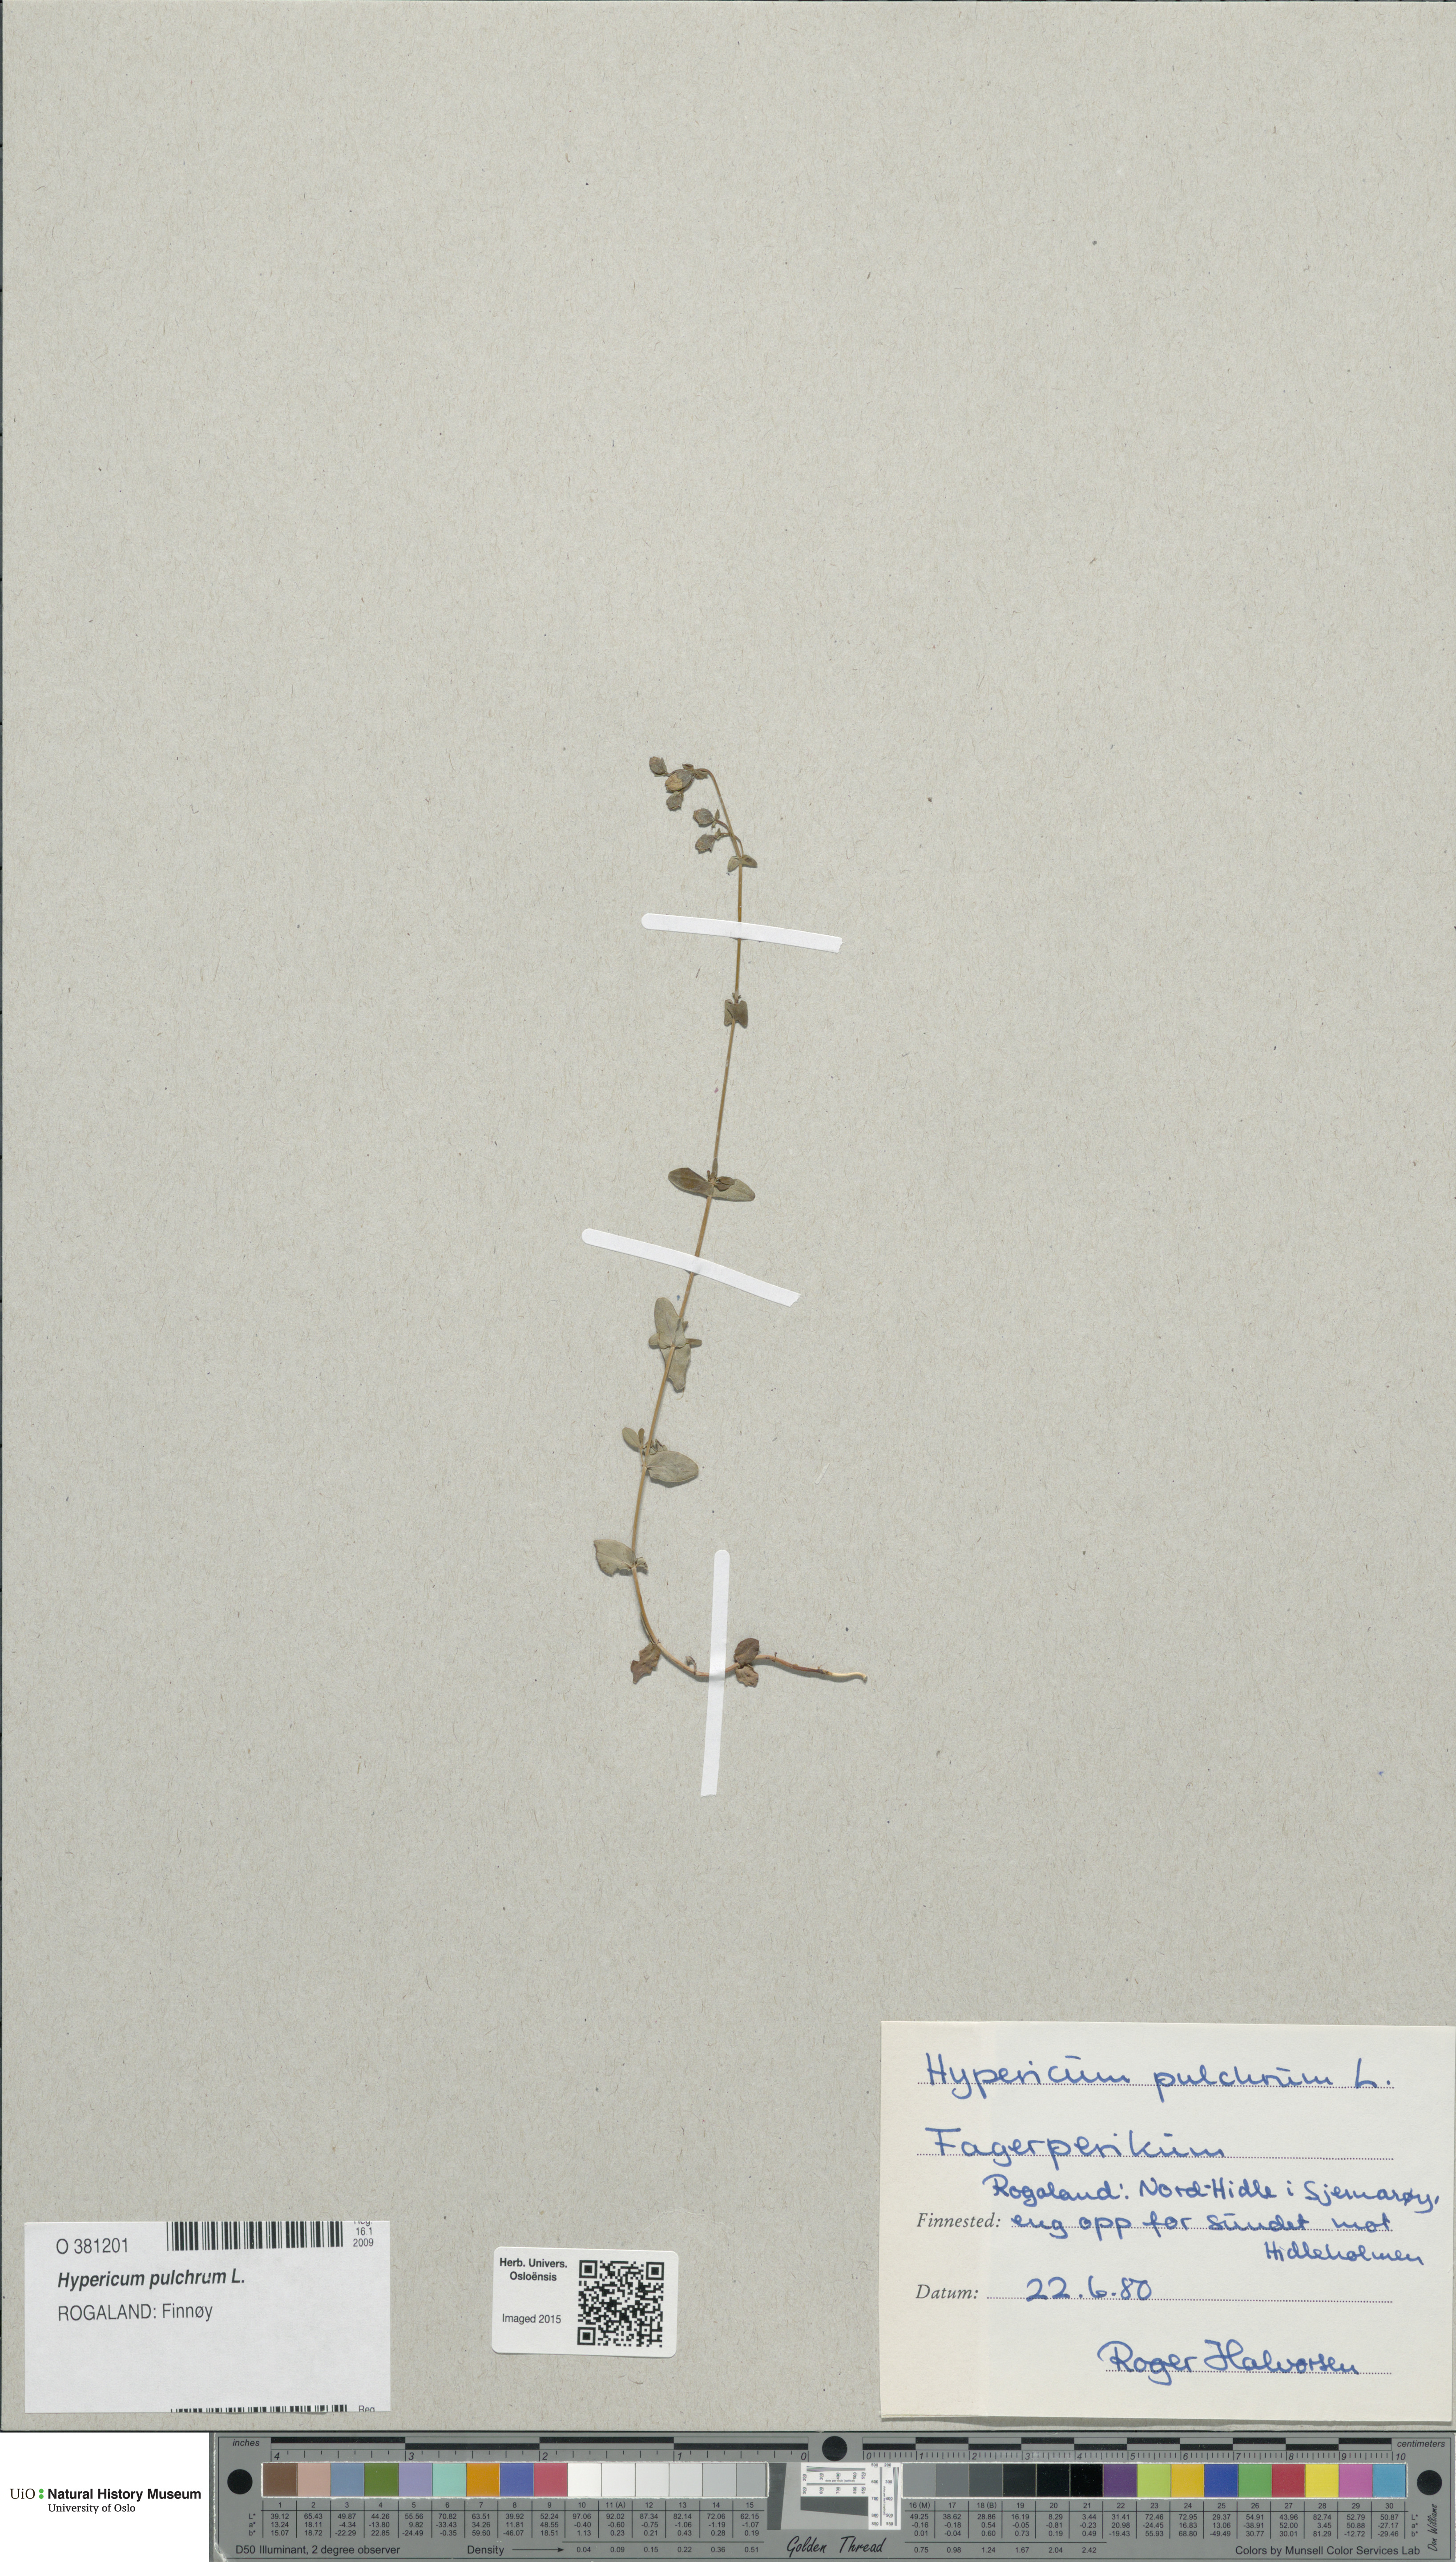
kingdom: Plantae
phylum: Tracheophyta
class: Magnoliopsida
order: Malpighiales
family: Hypericaceae
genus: Hypericum
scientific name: Hypericum pulchrum
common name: Slender st. john's-wort
